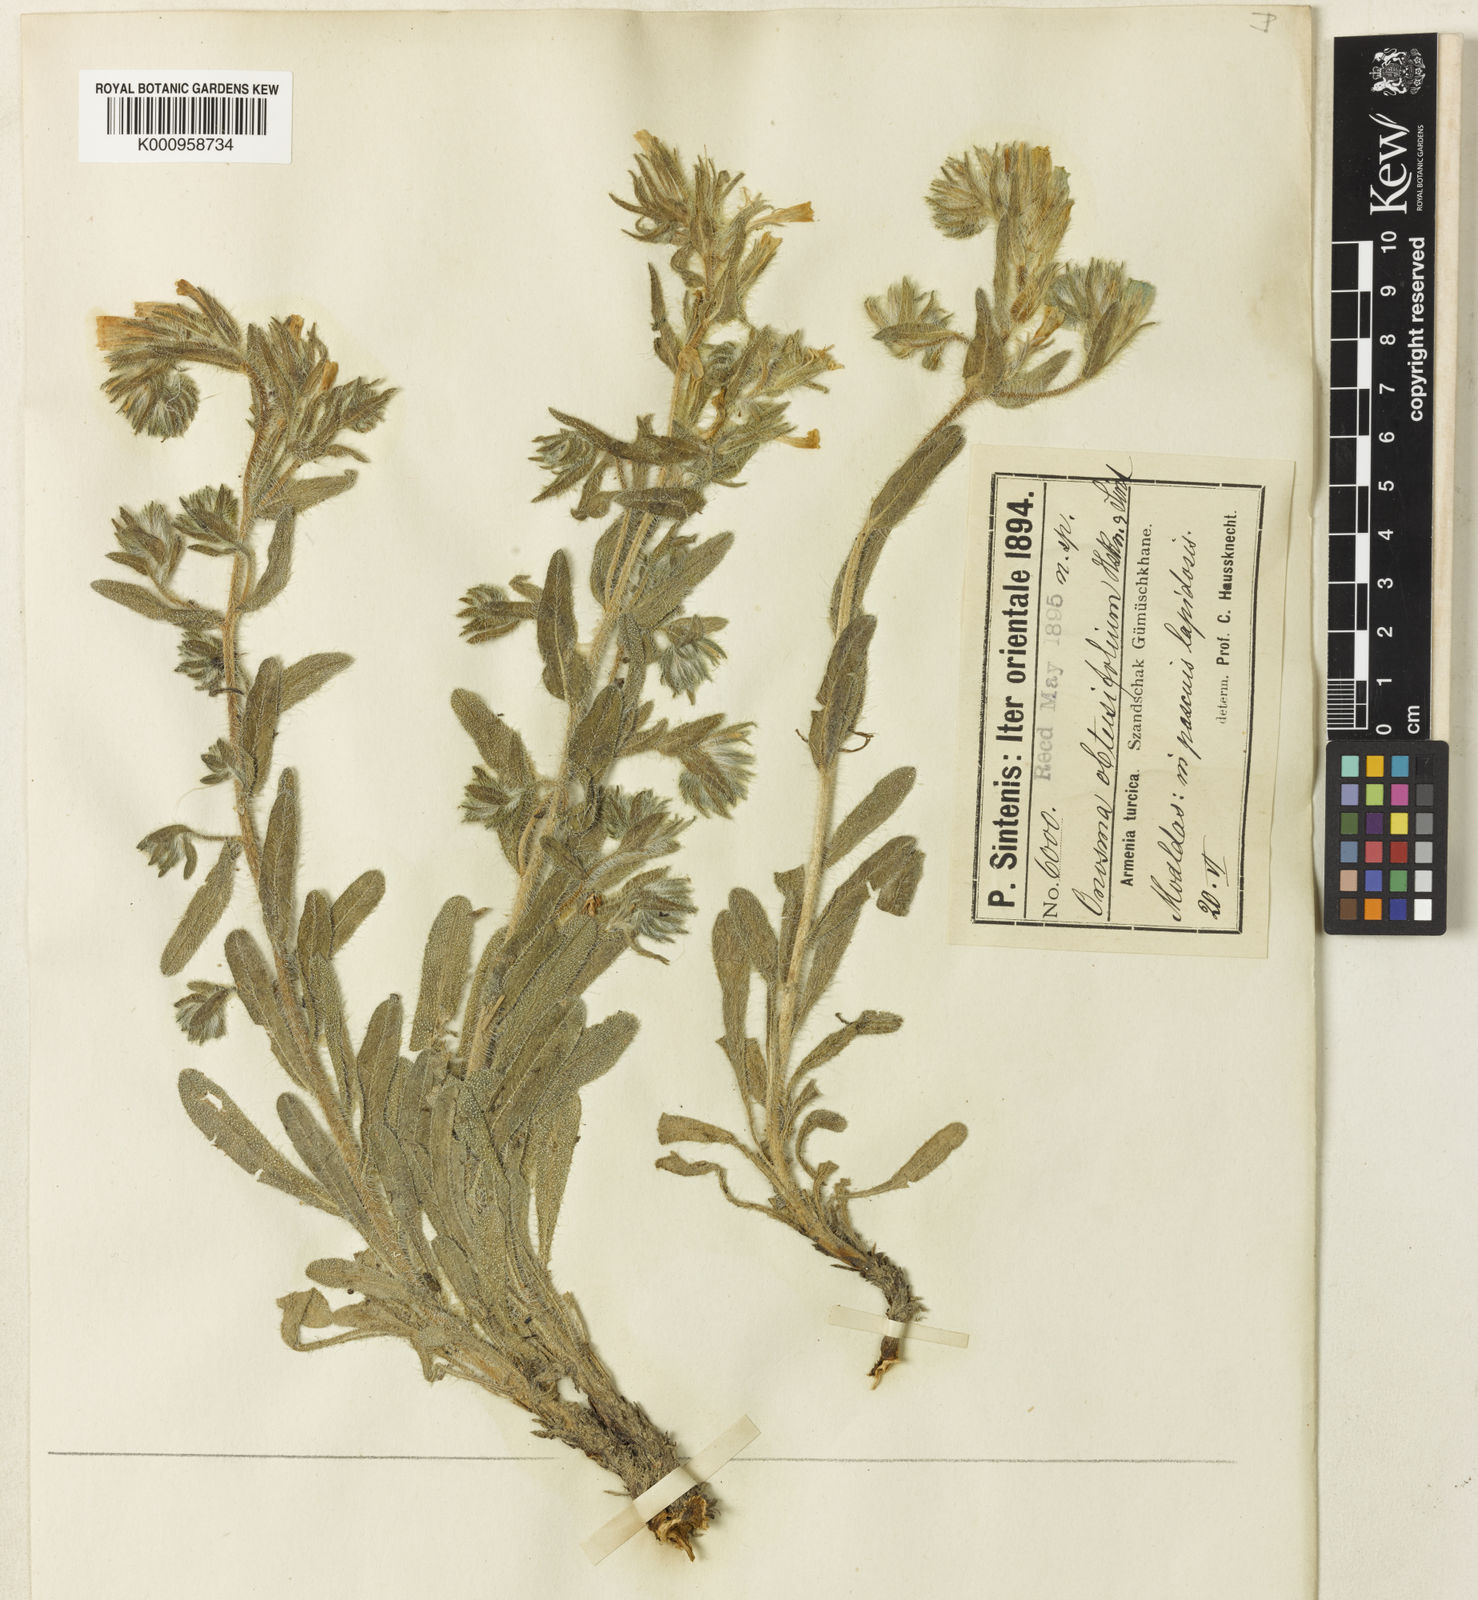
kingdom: Plantae
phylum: Tracheophyta
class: Magnoliopsida
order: Boraginales
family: Boraginaceae
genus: Onosma
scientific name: Onosma obtusifolia
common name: Amblyophyllous goldendrop
